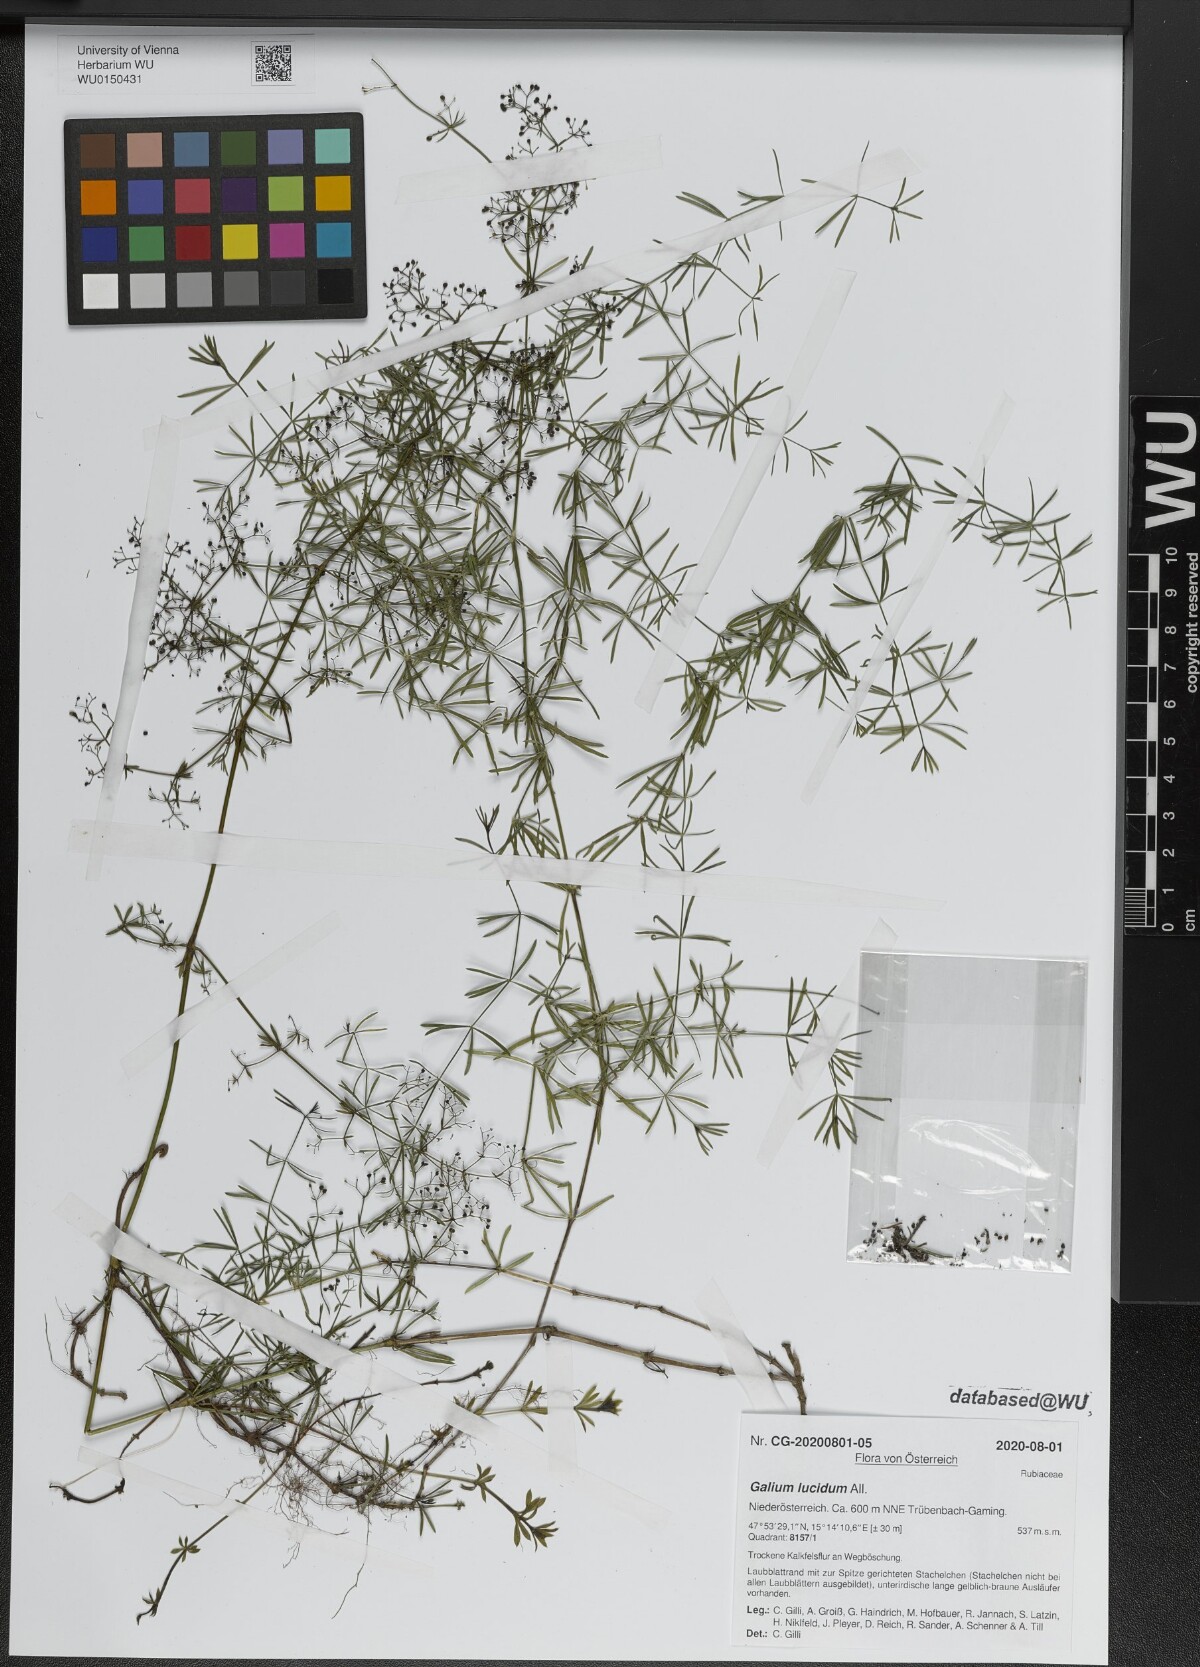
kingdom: Plantae
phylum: Tracheophyta
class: Magnoliopsida
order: Gentianales
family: Rubiaceae
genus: Galium
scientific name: Galium lucidum
